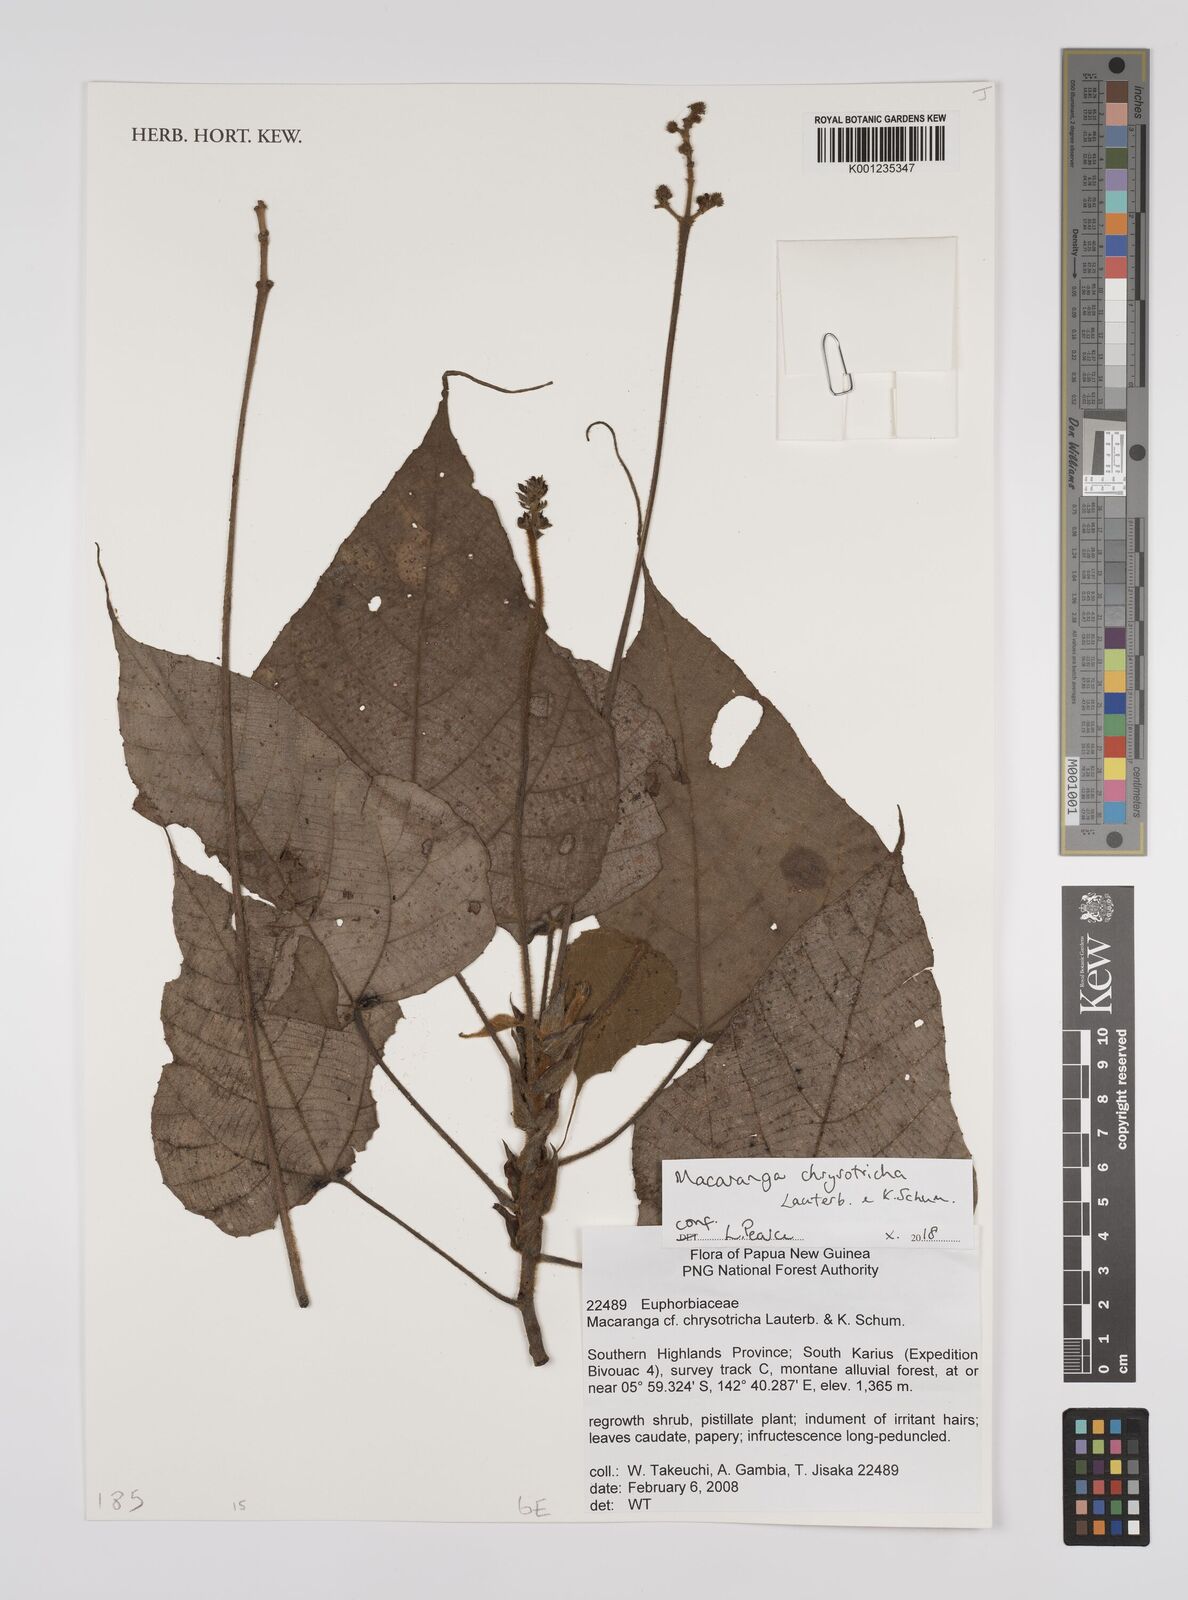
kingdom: Plantae
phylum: Tracheophyta
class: Magnoliopsida
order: Malpighiales
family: Euphorbiaceae
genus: Macaranga
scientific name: Macaranga caudata
